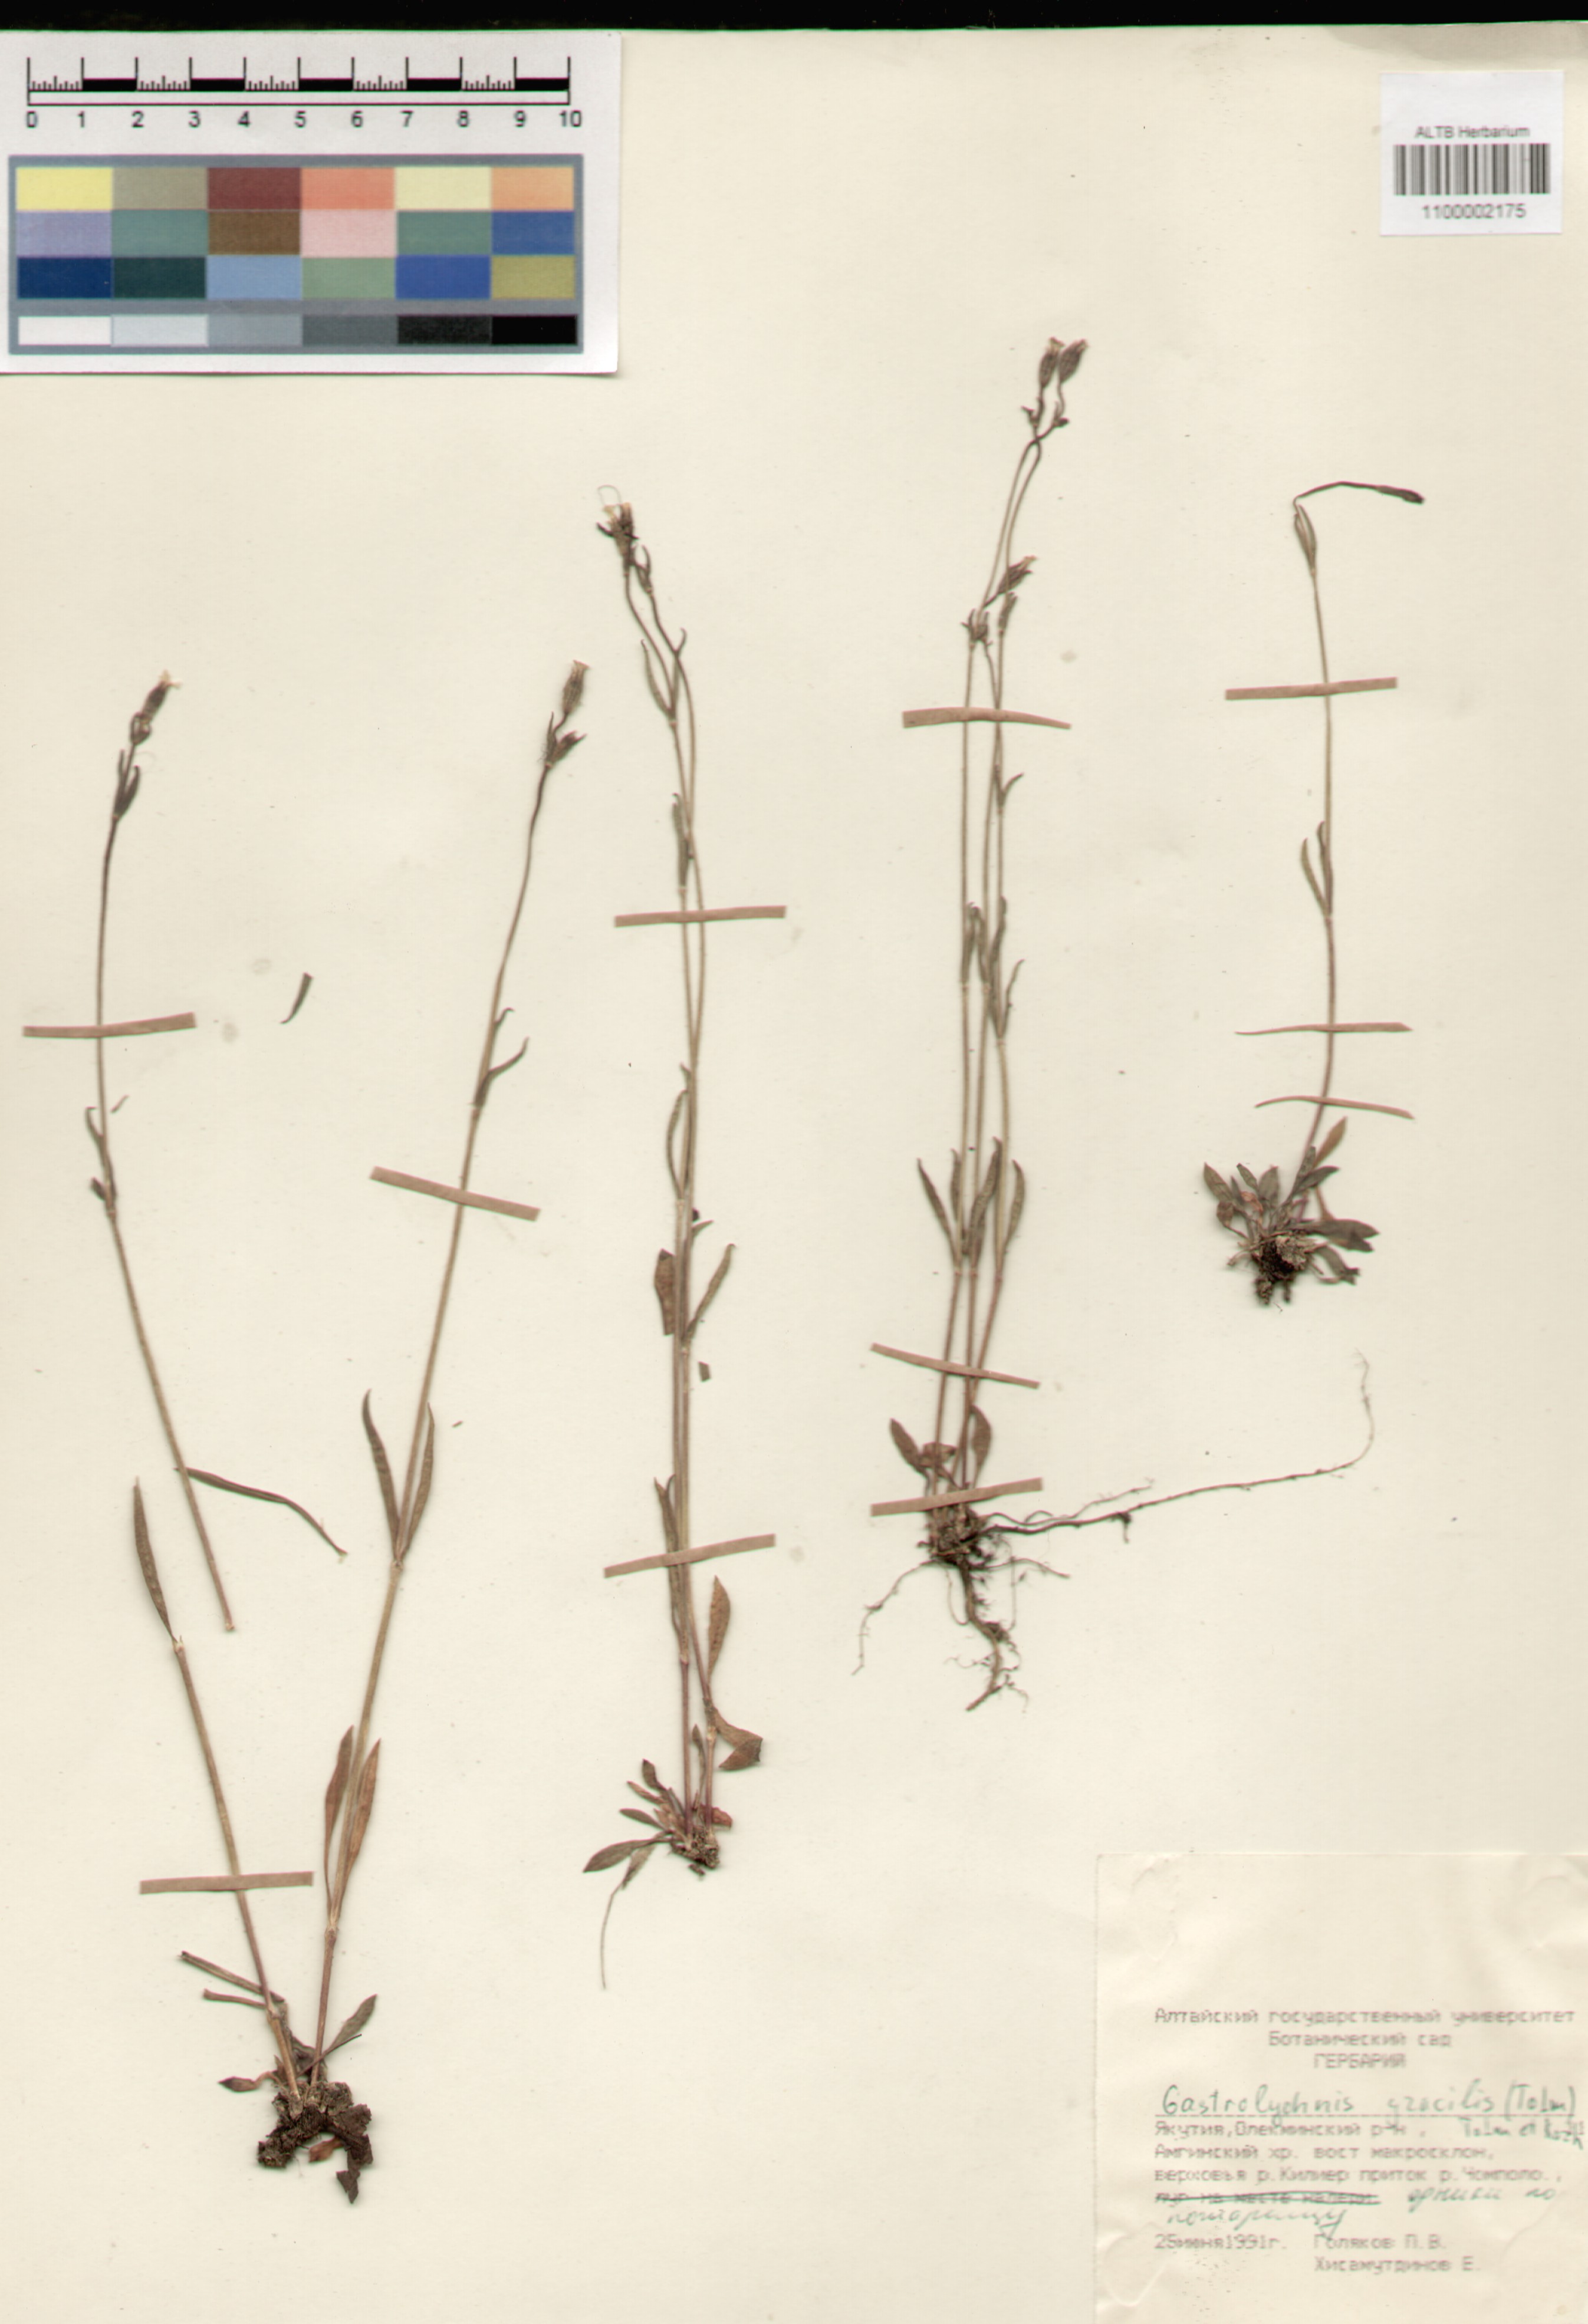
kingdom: Plantae
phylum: Tracheophyta
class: Magnoliopsida
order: Caryophyllales
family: Caryophyllaceae
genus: Silene
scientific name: Silene gracilis
